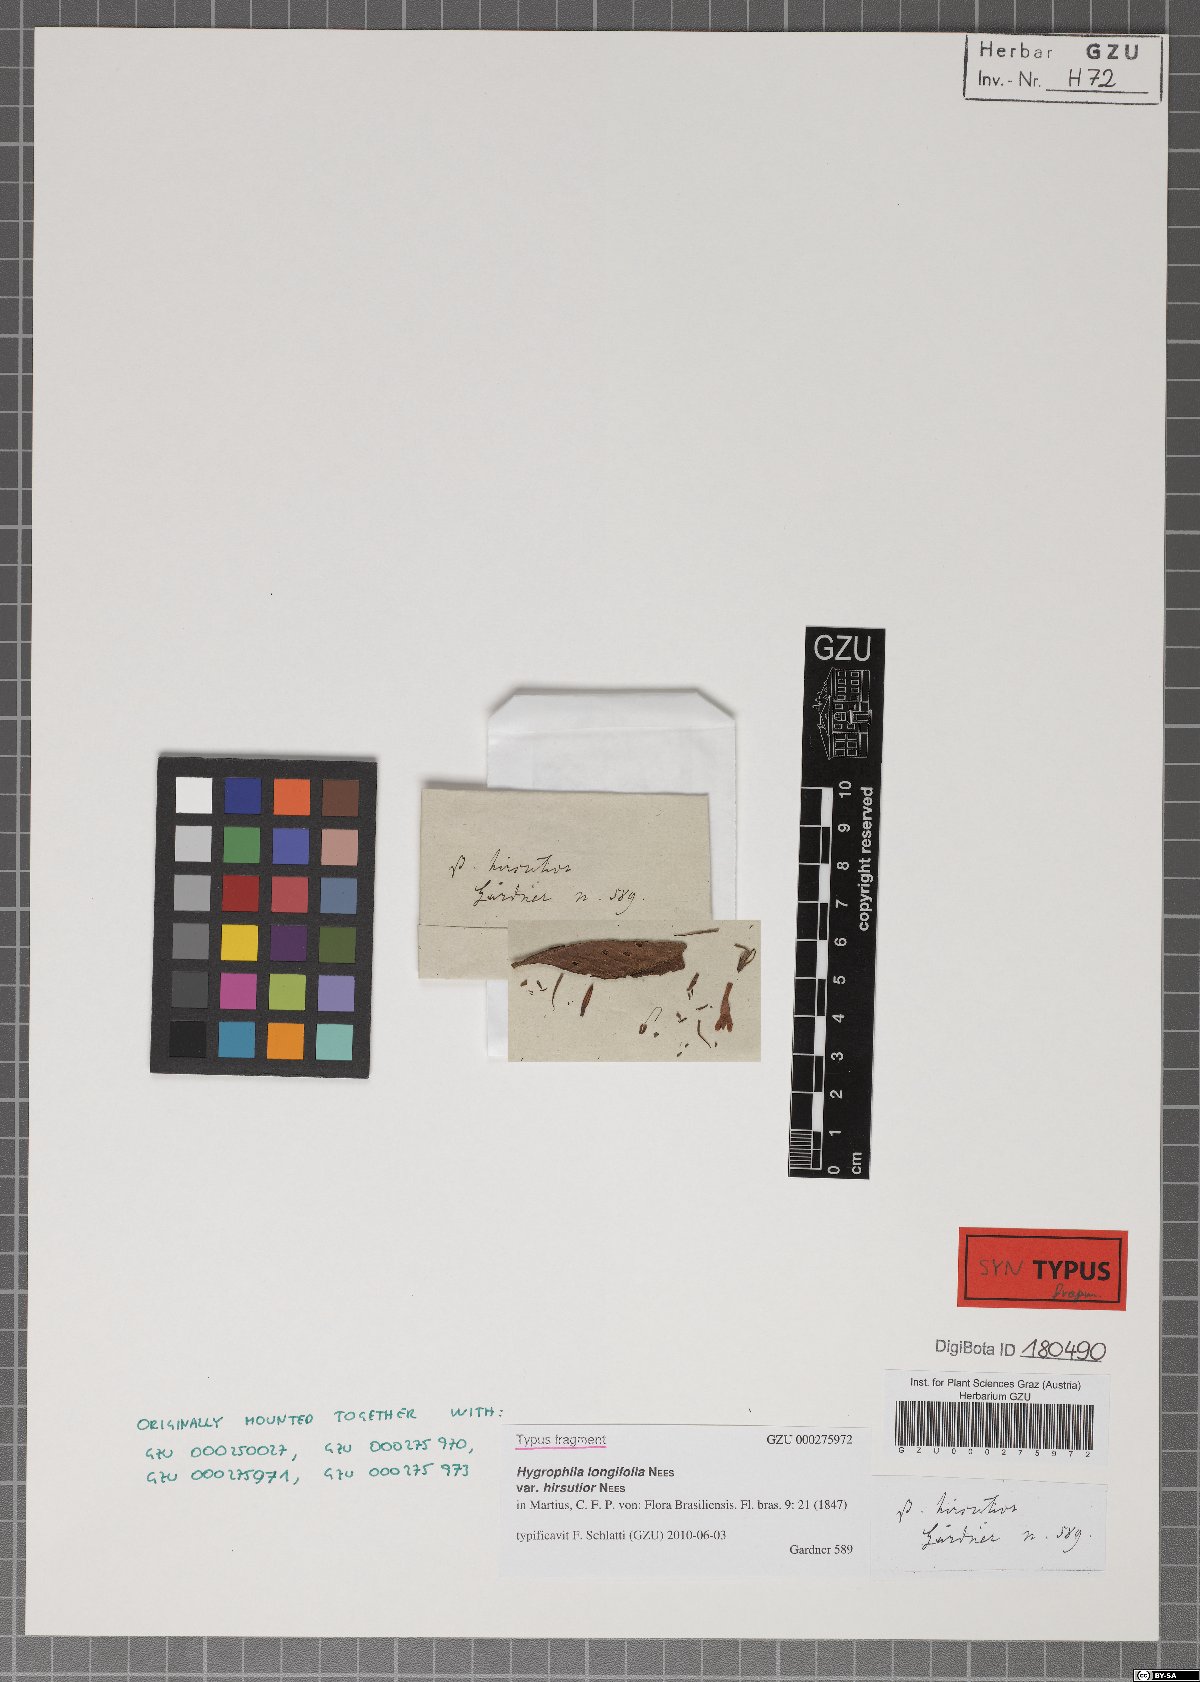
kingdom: Plantae
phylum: Tracheophyta
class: Magnoliopsida
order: Lamiales
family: Acanthaceae
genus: Hygrophila
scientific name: Hygrophila costata
